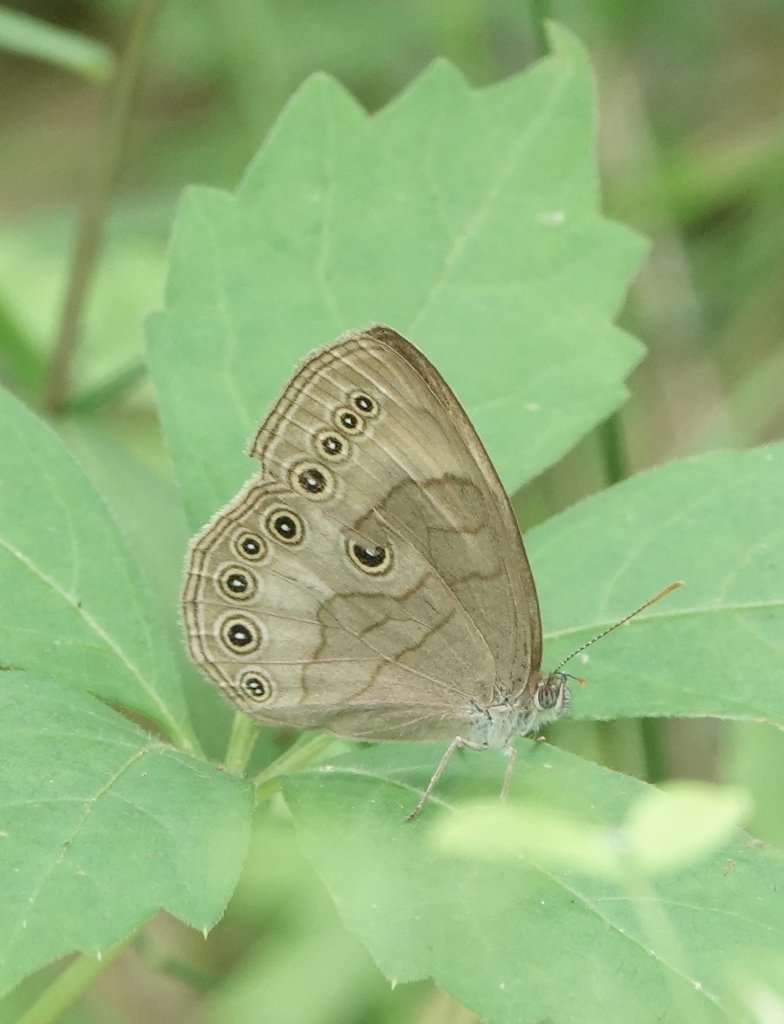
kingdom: Animalia
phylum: Arthropoda
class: Insecta
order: Lepidoptera
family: Nymphalidae
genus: Lethe
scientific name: Lethe eurydice
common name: Appalachian Eyed Brown
